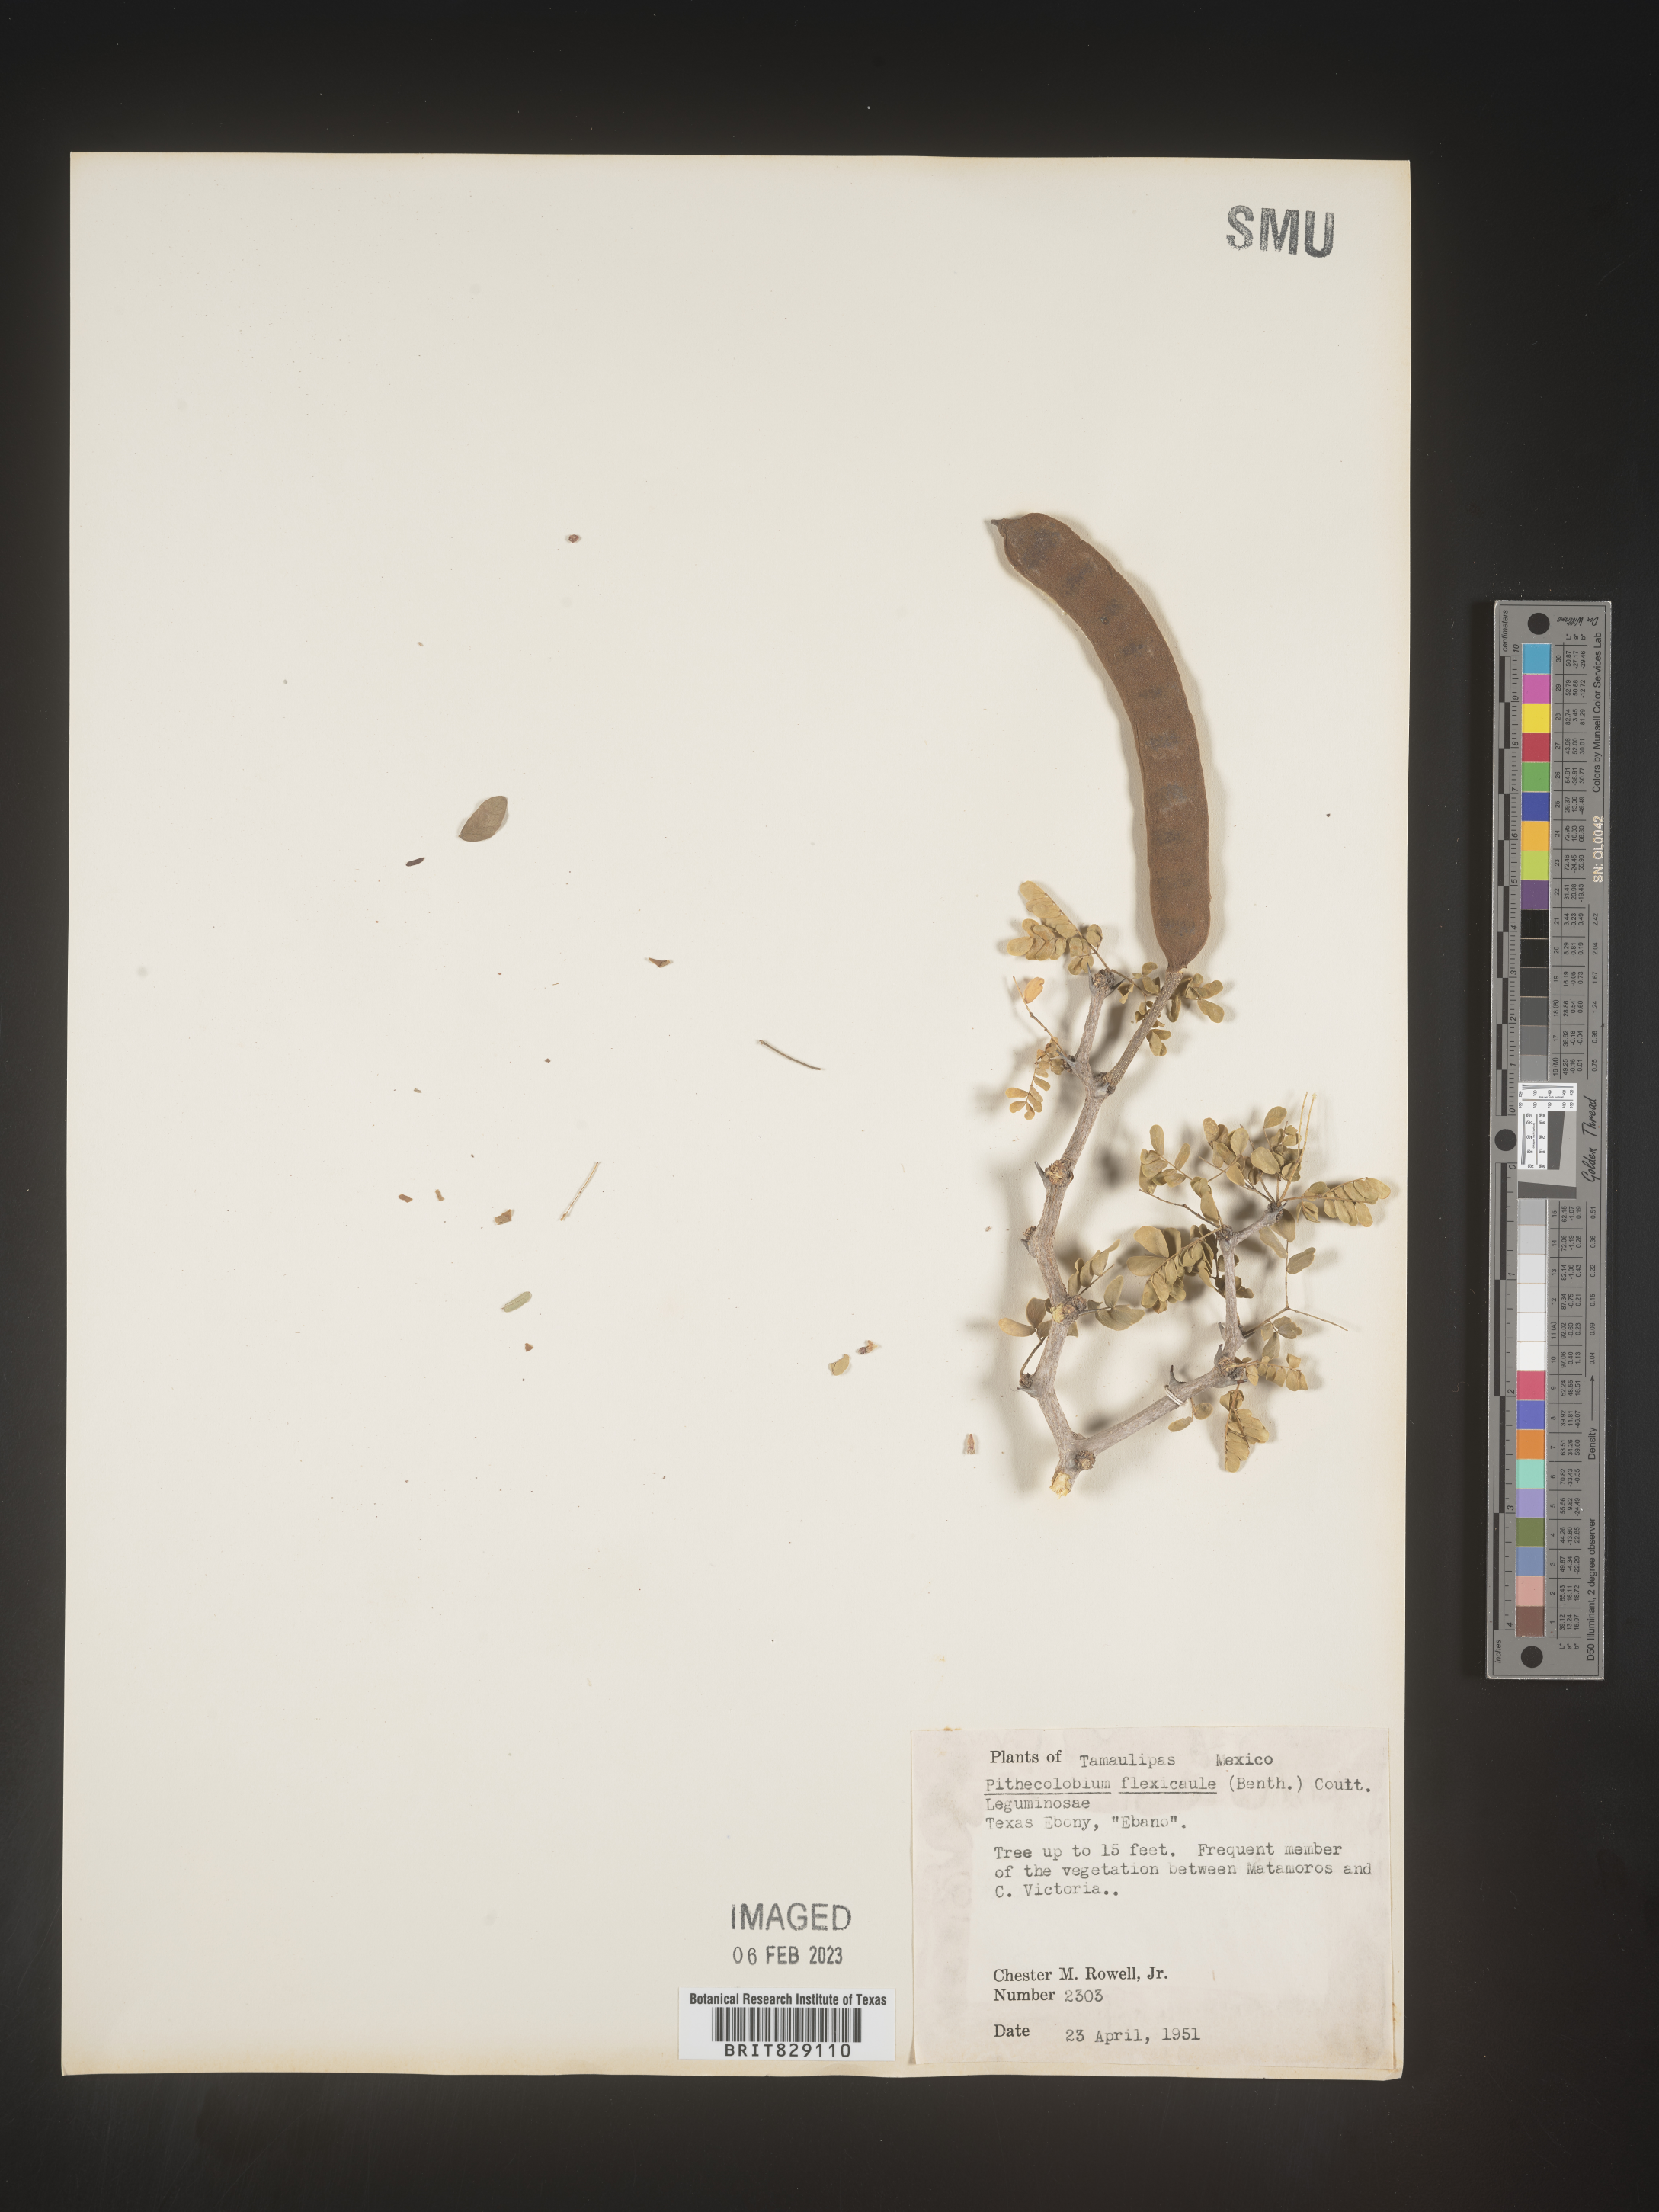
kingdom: Plantae
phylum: Tracheophyta
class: Magnoliopsida
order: Fabales
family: Fabaceae
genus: Pithecellobium
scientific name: Pithecellobium
